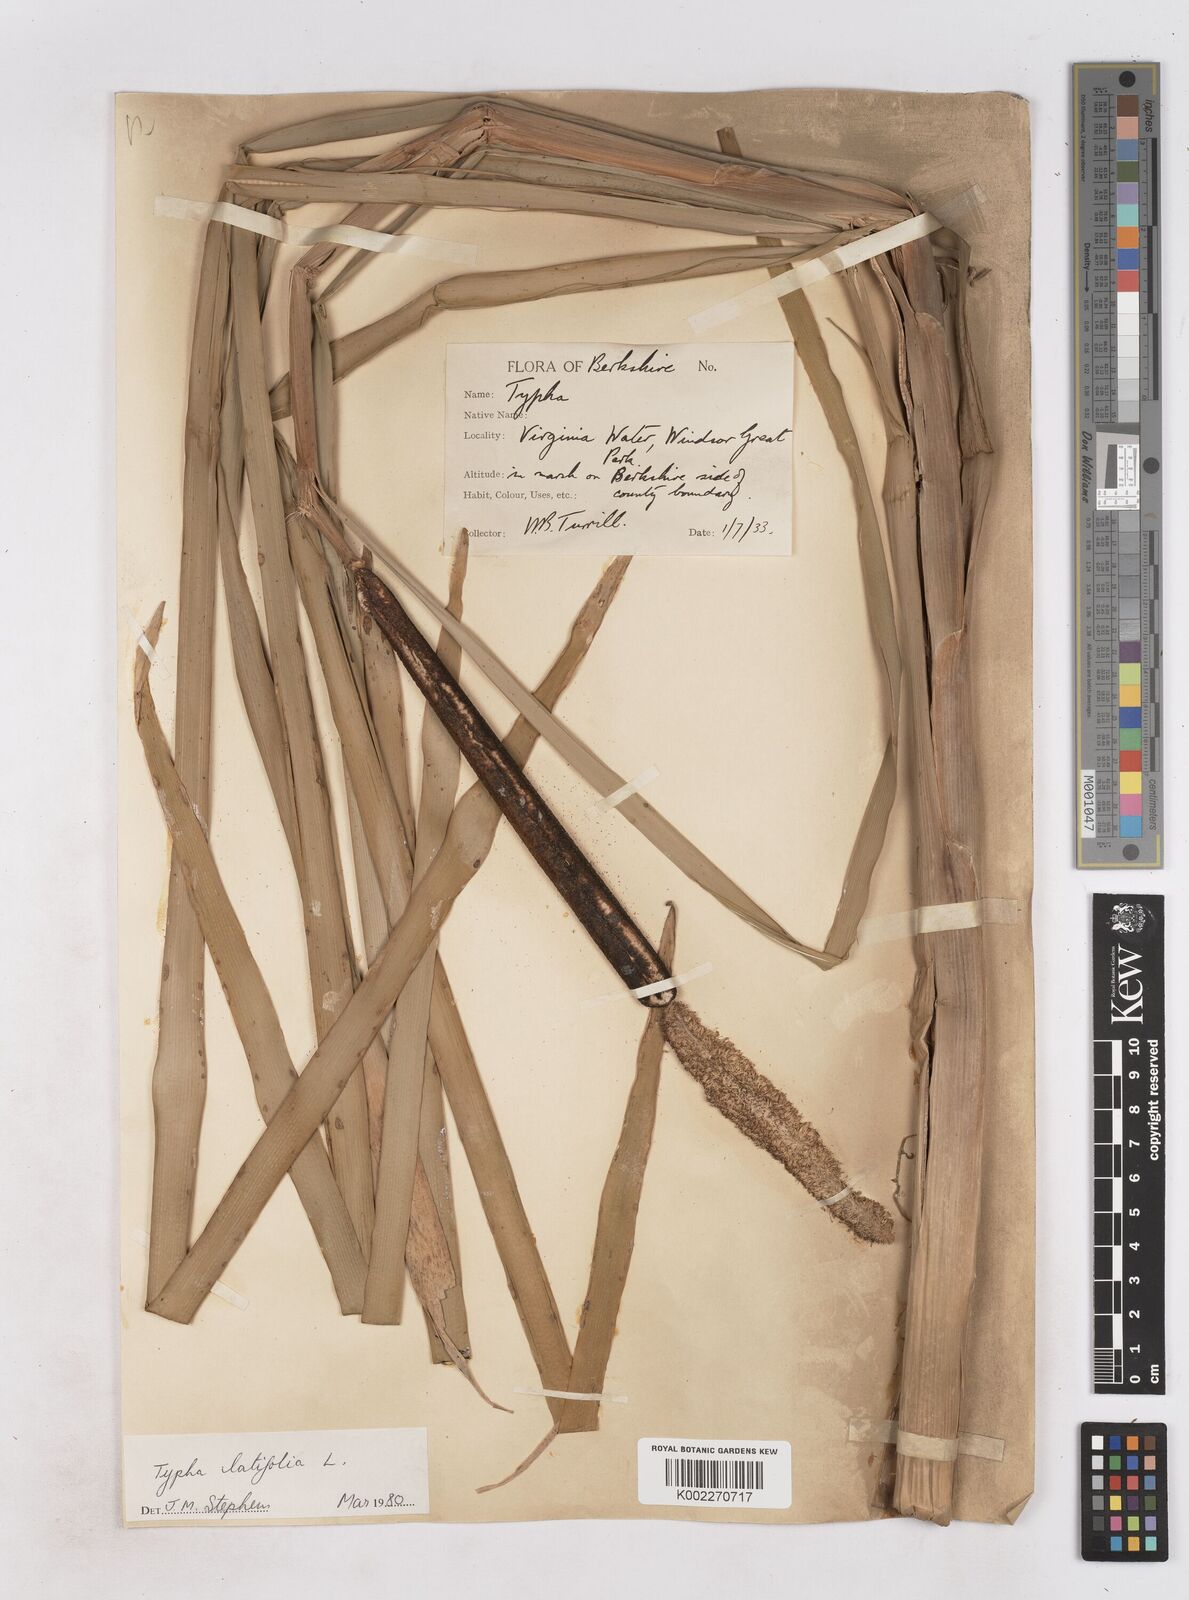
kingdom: Plantae
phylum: Tracheophyta
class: Liliopsida
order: Poales
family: Typhaceae
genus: Typha
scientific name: Typha latifolia
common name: Broadleaf cattail
